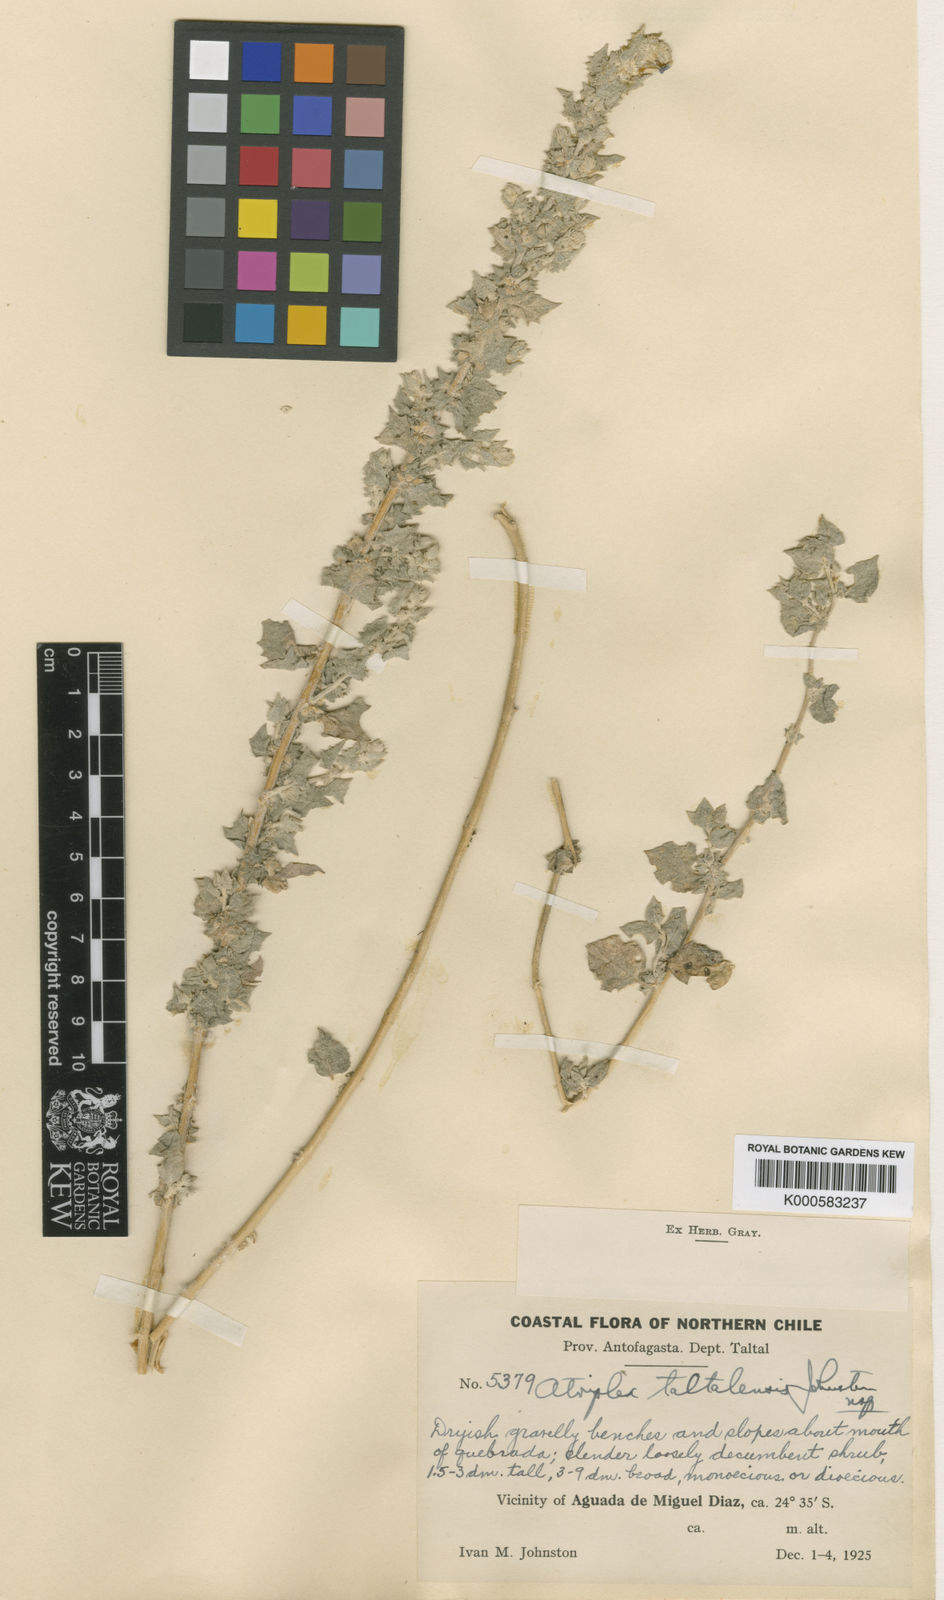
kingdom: Plantae
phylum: Tracheophyta
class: Magnoliopsida
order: Caryophyllales
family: Amaranthaceae
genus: Atriplex
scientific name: Atriplex taltalensis
